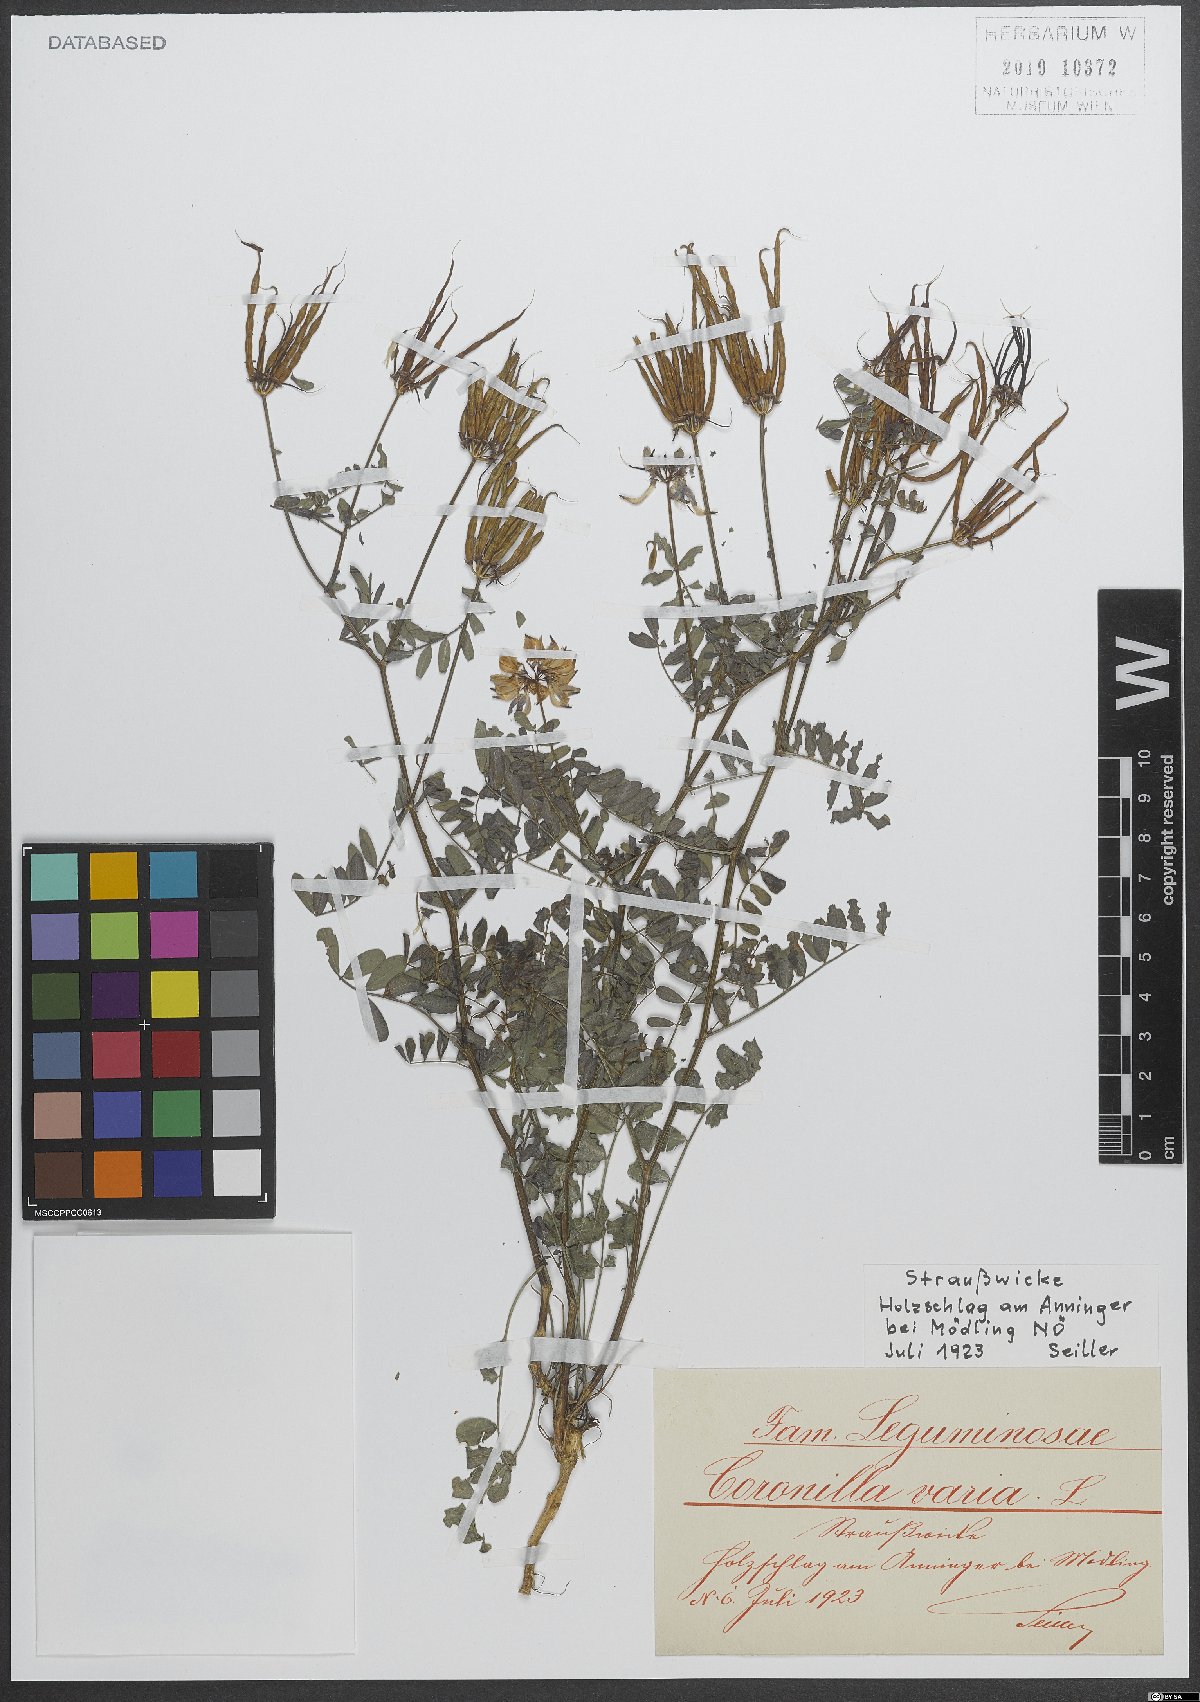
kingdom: Plantae
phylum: Tracheophyta
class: Magnoliopsida
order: Fabales
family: Fabaceae
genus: Coronilla
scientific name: Coronilla varia
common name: Crownvetch
